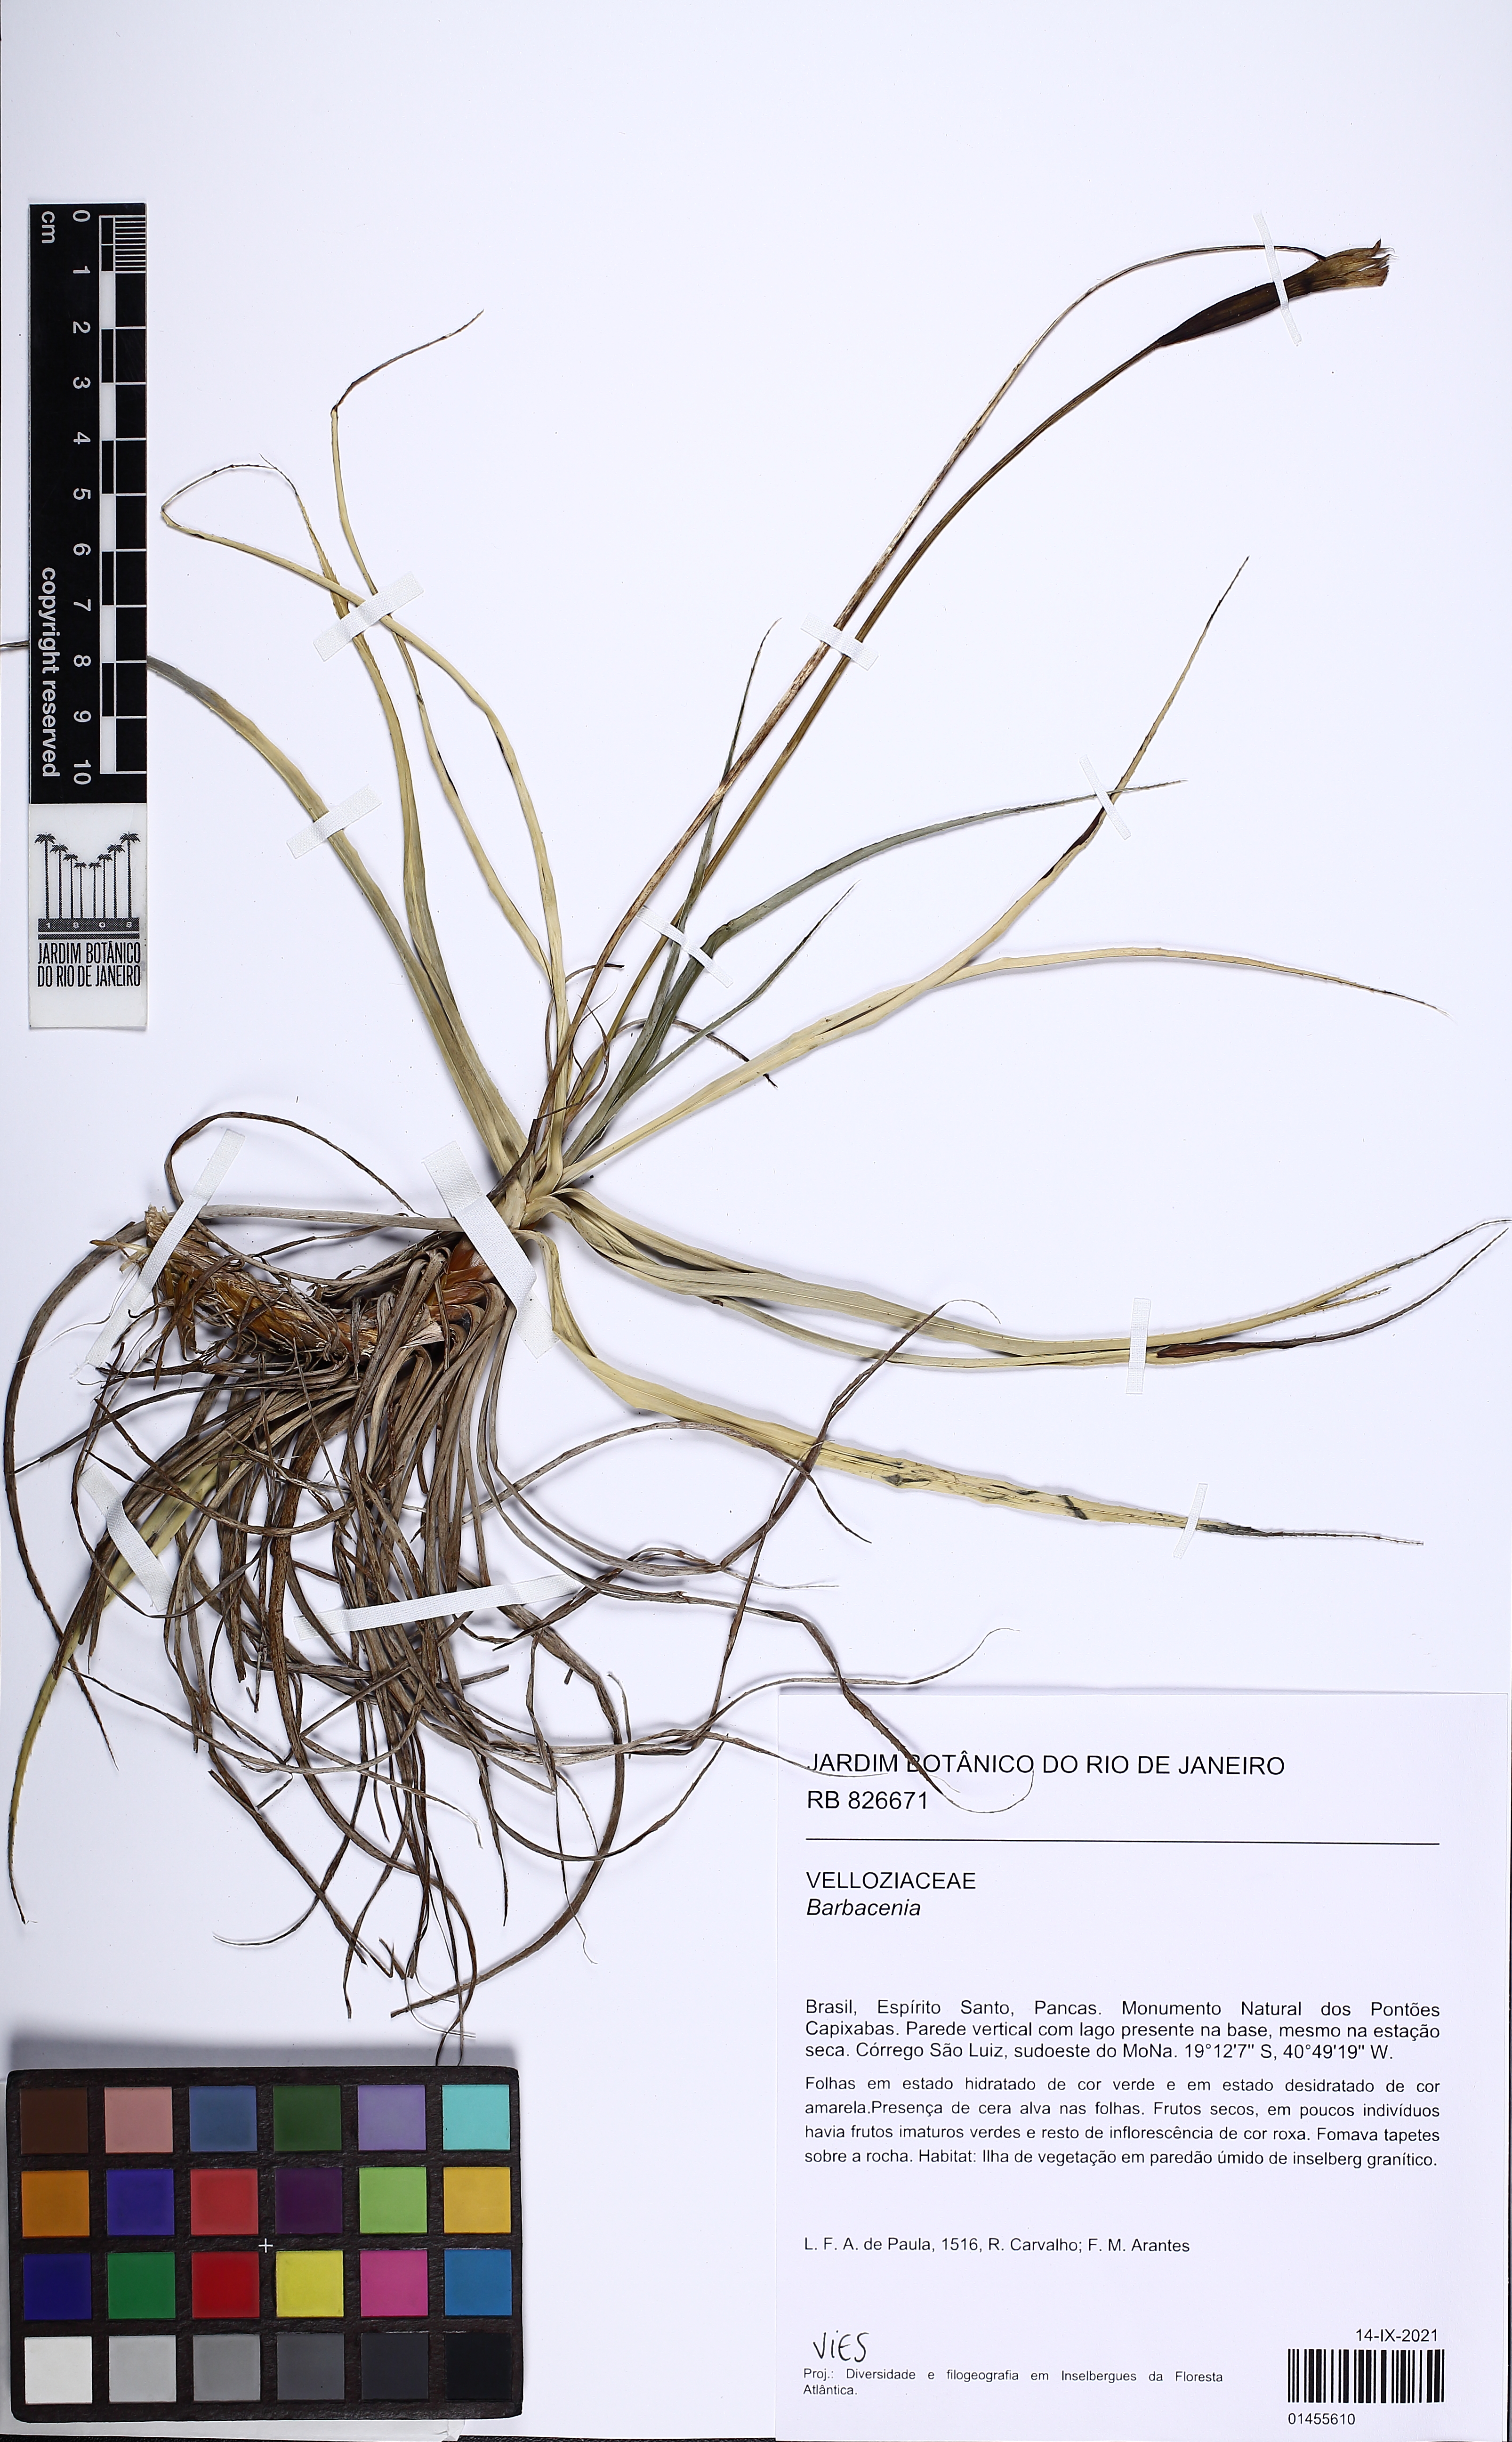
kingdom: Plantae
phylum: Tracheophyta
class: Liliopsida
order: Pandanales
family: Velloziaceae
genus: Barbacenia
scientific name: Barbacenia
